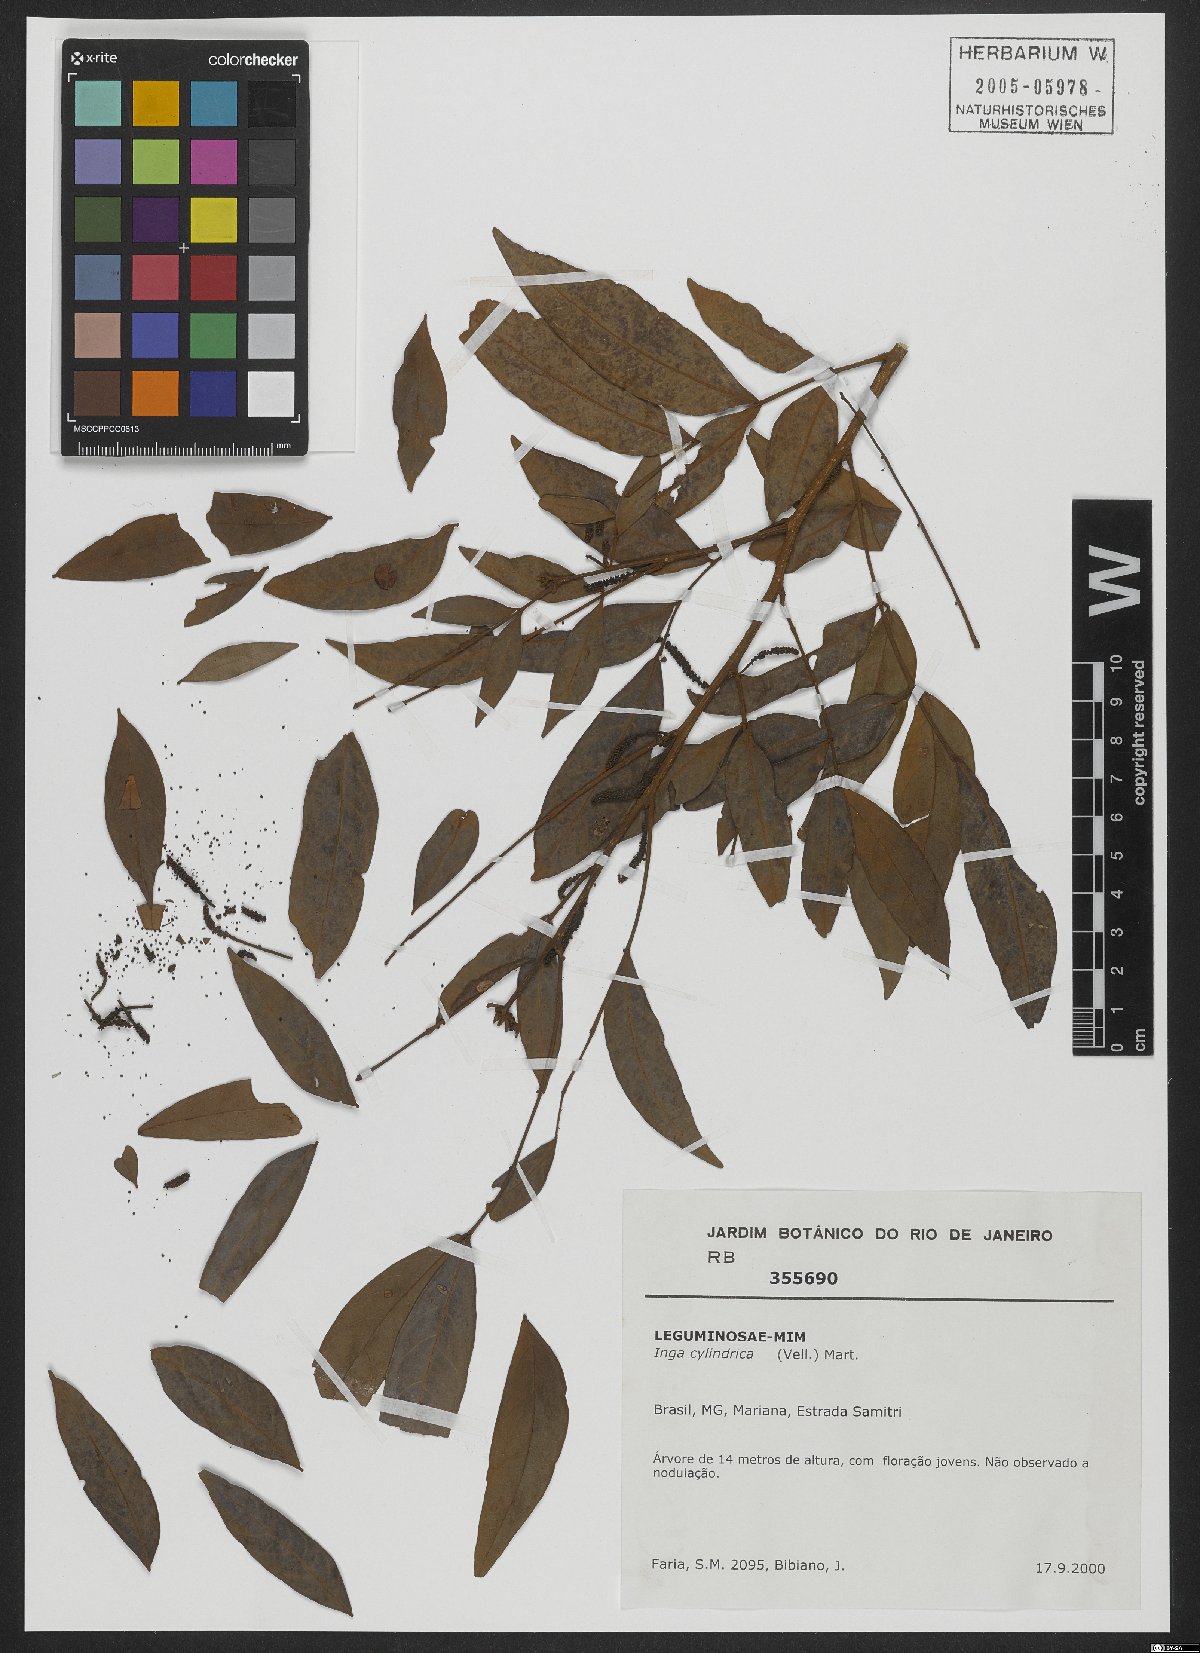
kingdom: Plantae
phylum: Tracheophyta
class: Magnoliopsida
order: Fabales
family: Fabaceae
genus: Inga
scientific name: Inga cylindrica
